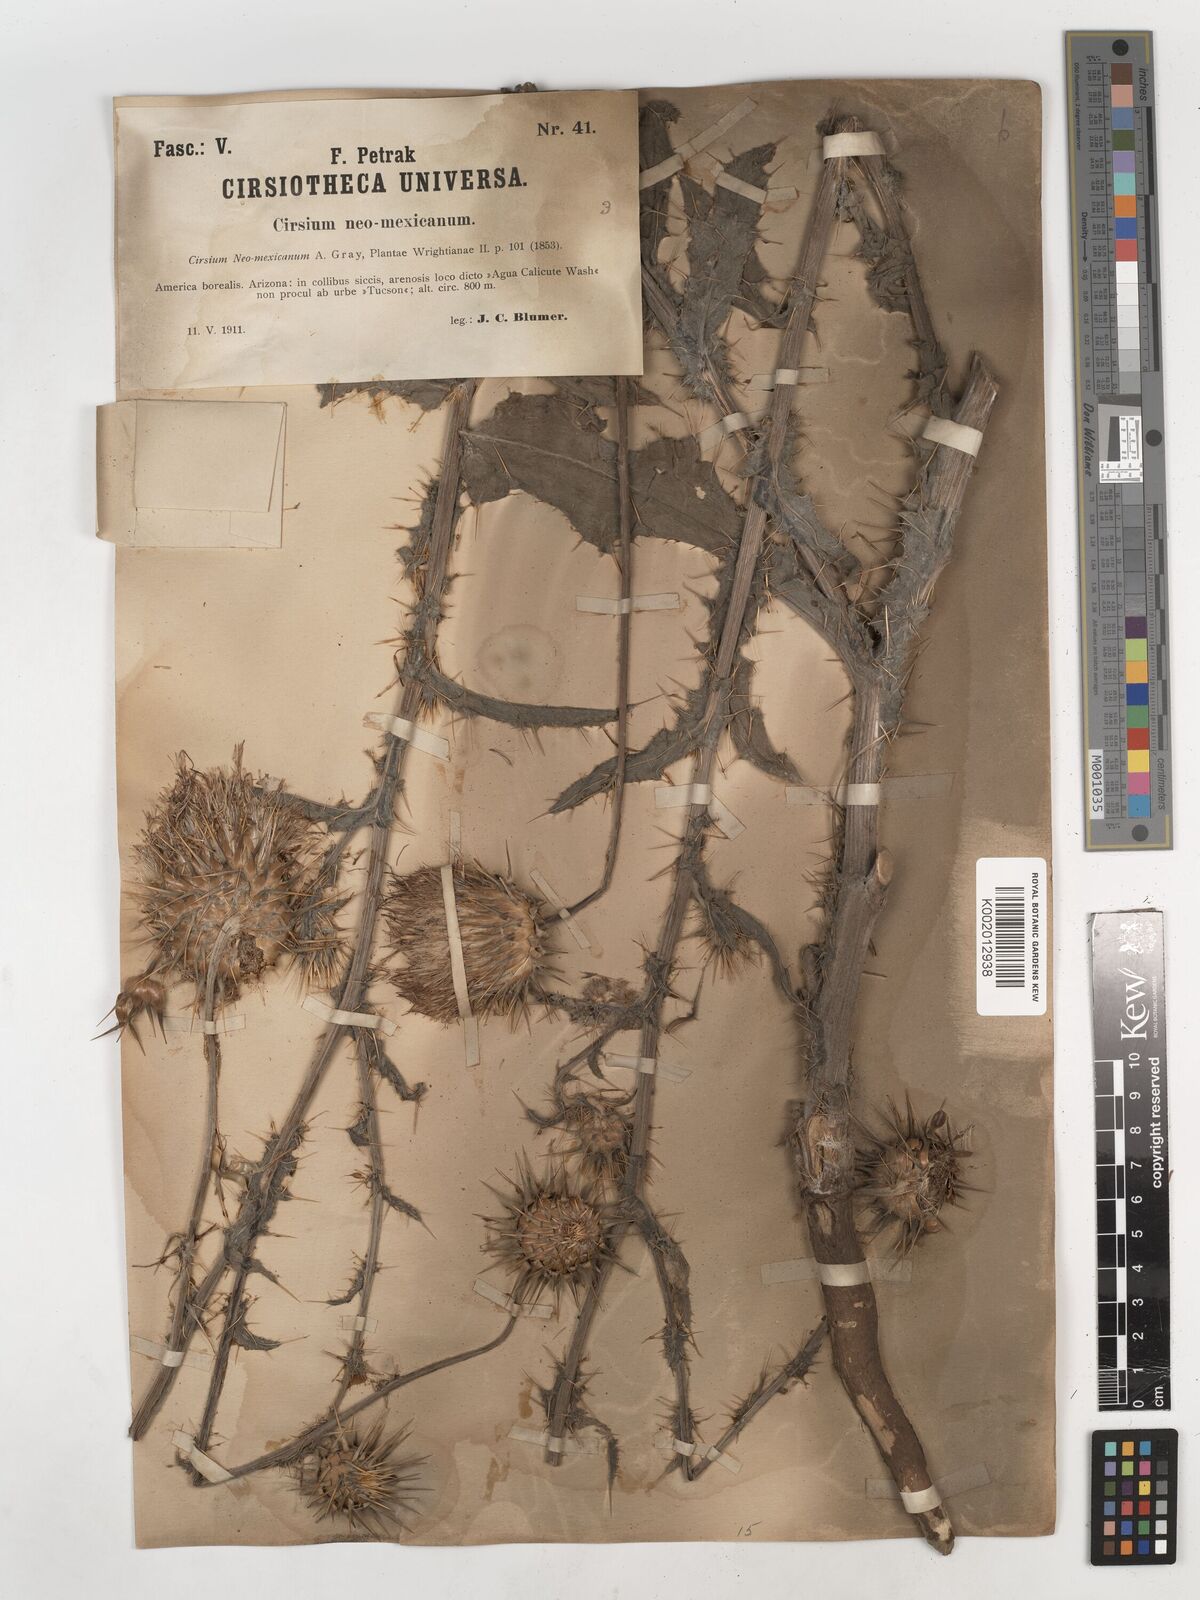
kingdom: Plantae
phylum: Tracheophyta
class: Magnoliopsida
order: Asterales
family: Asteraceae
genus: Cirsium
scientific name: Cirsium neomexicanum
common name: New mexico thistle
